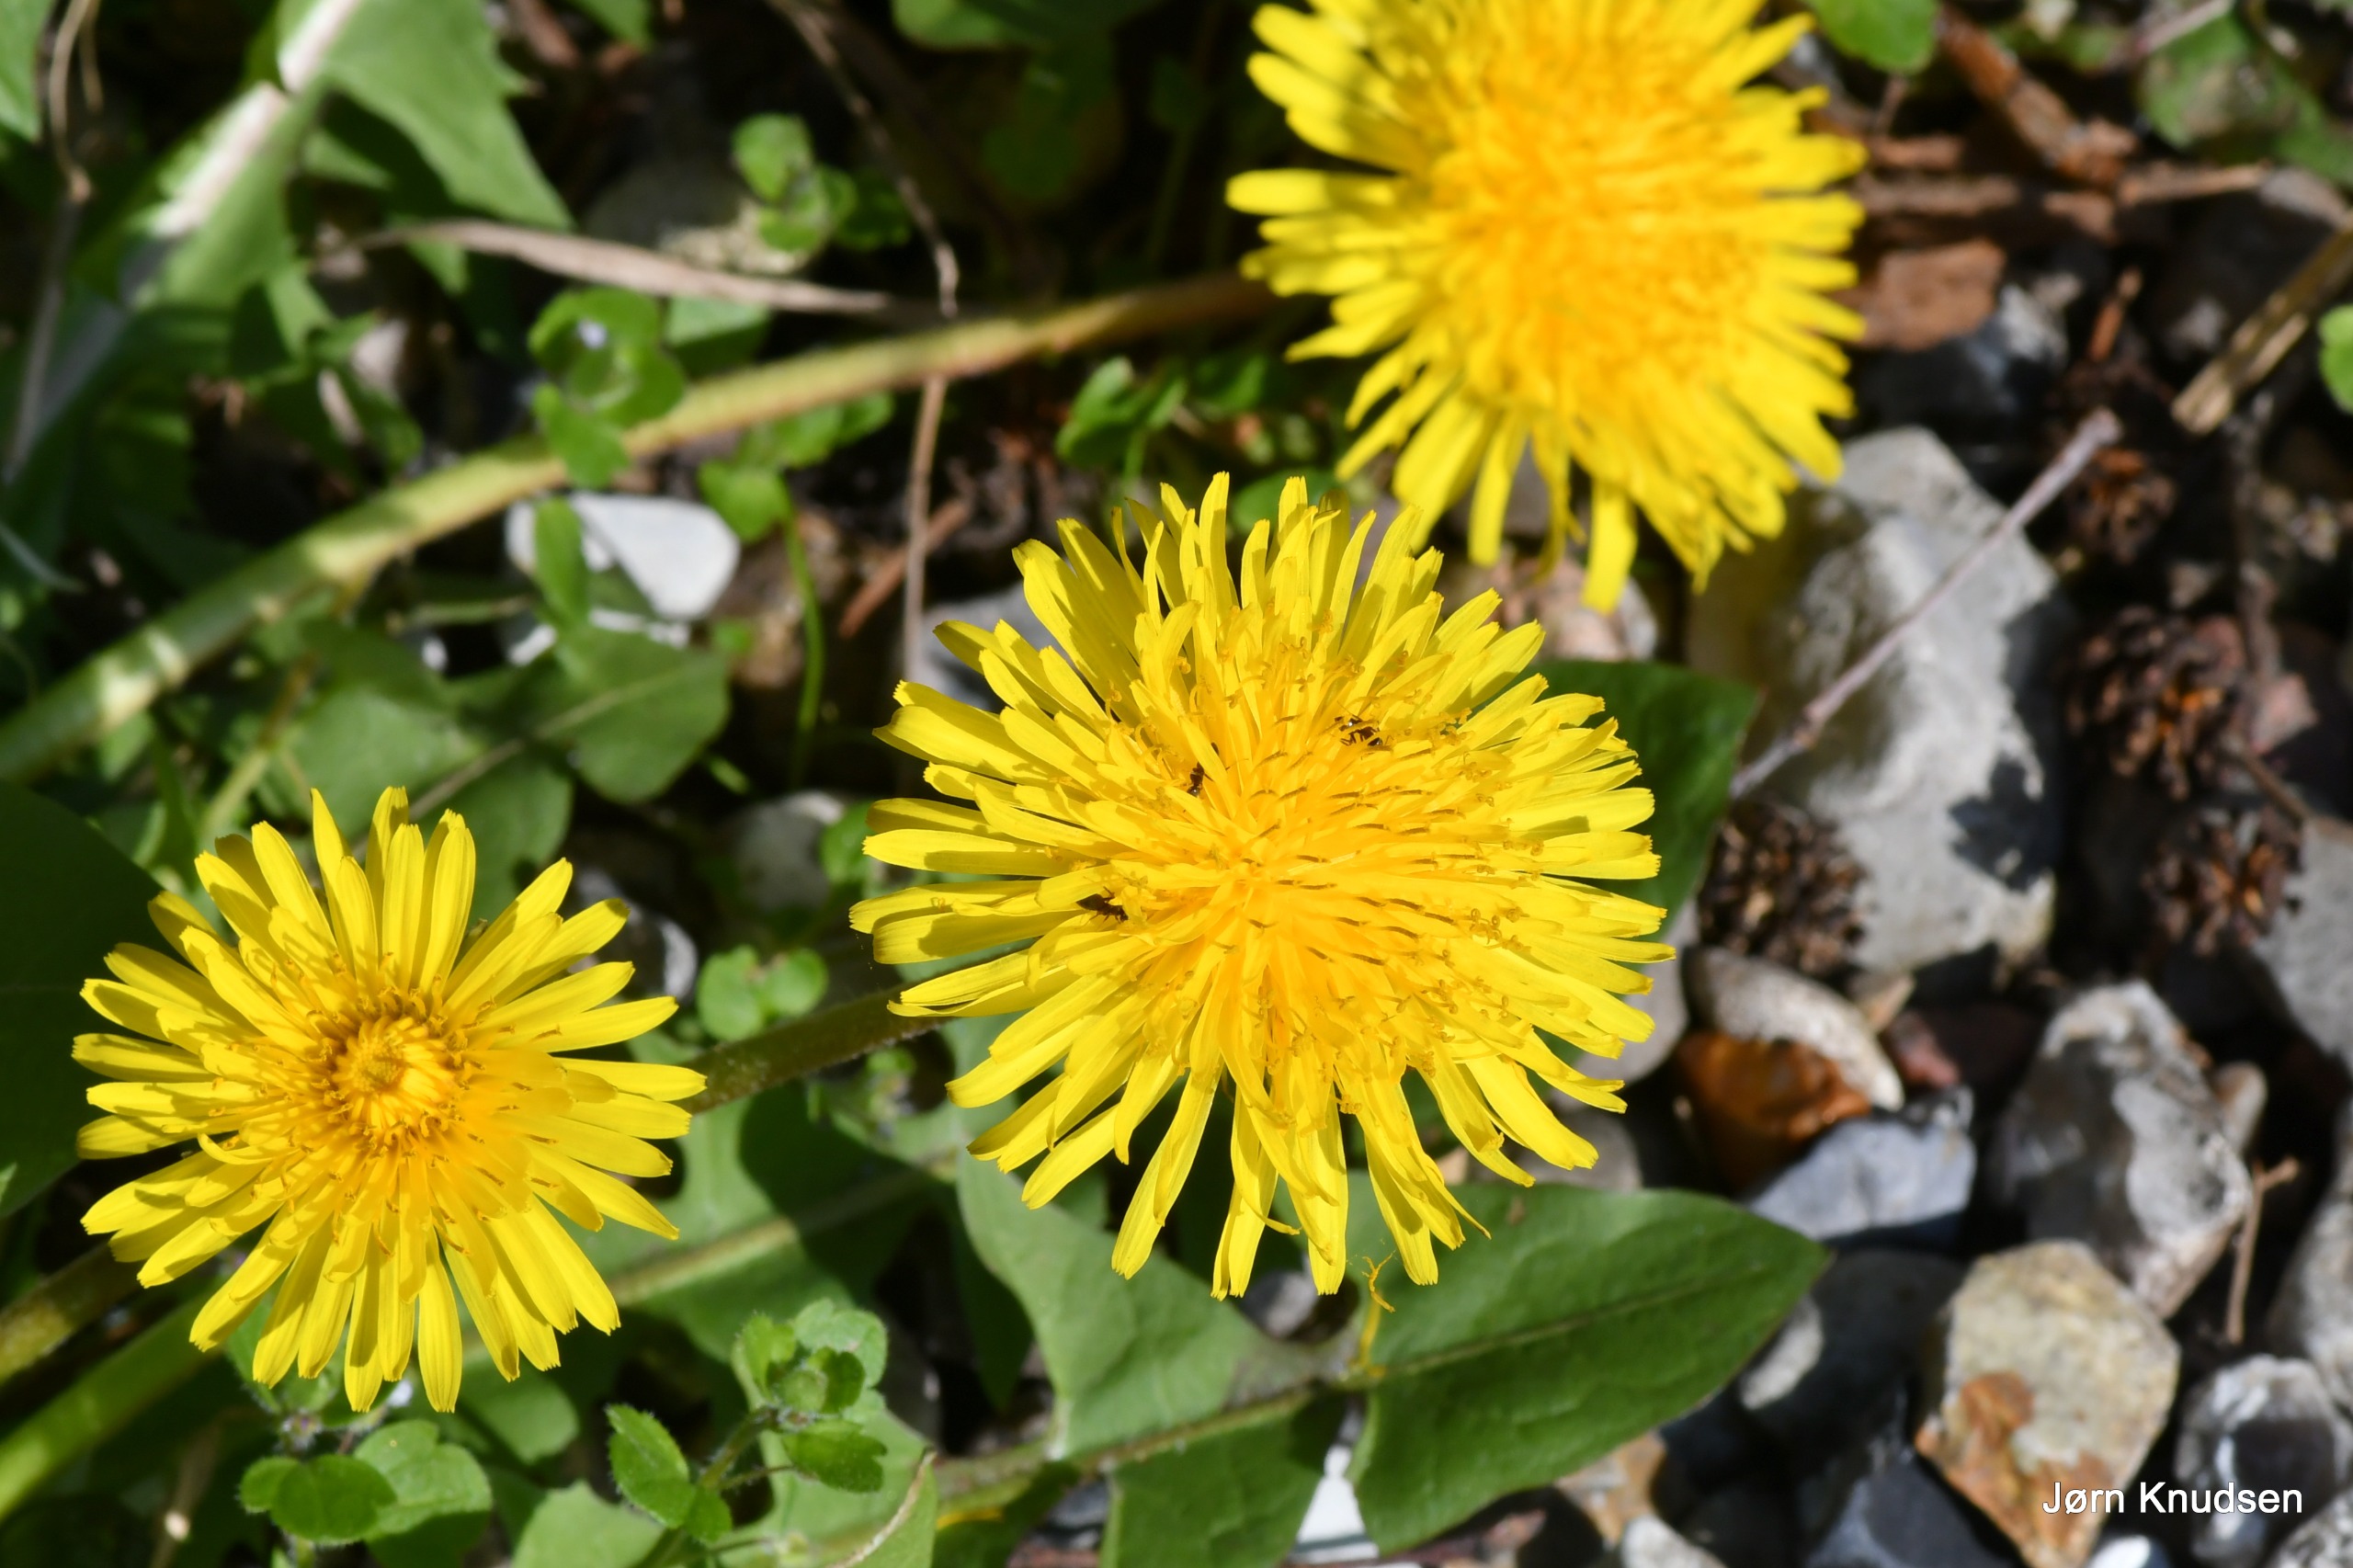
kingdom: Plantae
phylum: Tracheophyta
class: Magnoliopsida
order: Asterales
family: Asteraceae
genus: Taraxacum
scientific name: Taraxacum
